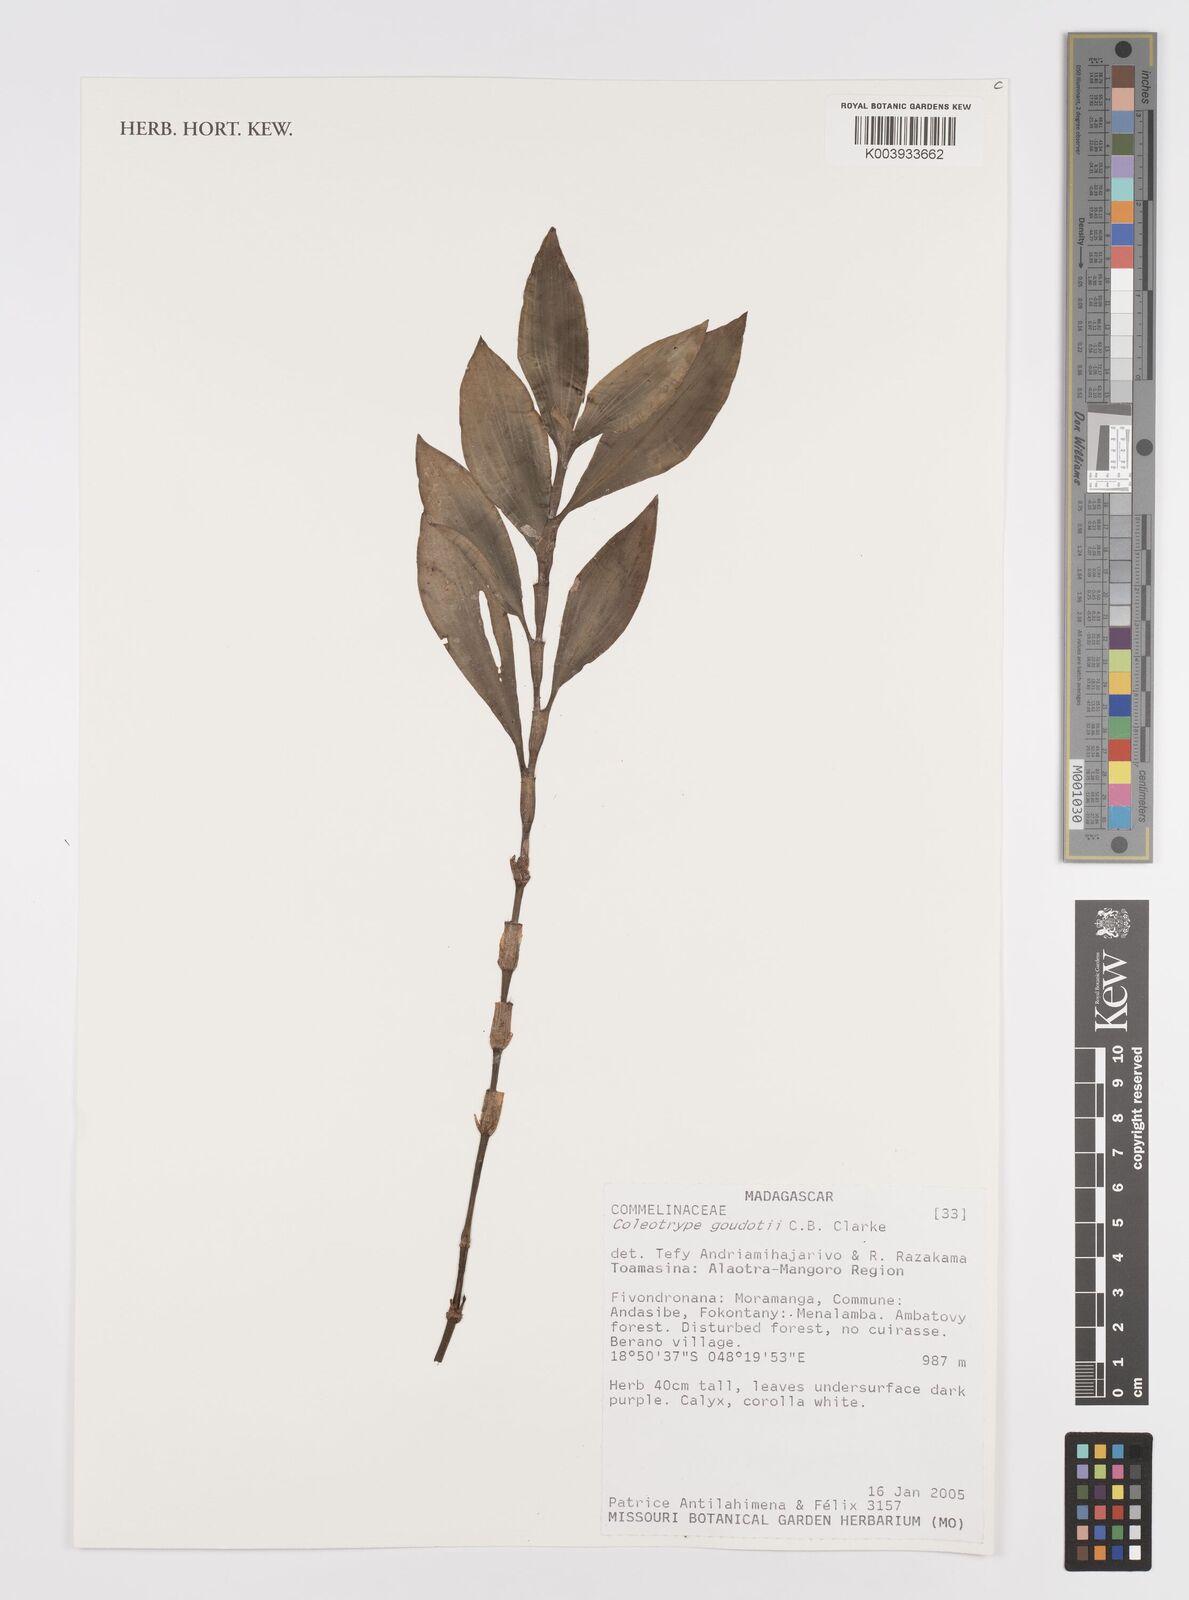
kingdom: Plantae
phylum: Tracheophyta
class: Liliopsida
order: Commelinales
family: Commelinaceae
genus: Coleotrype
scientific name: Coleotrype goudotii
